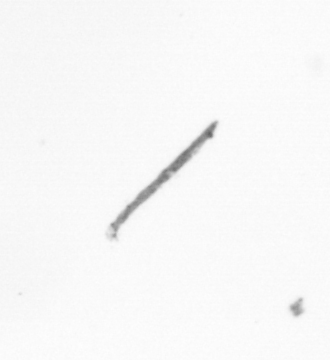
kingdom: Chromista
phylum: Ochrophyta
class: Bacillariophyceae
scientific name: Bacillariophyceae
